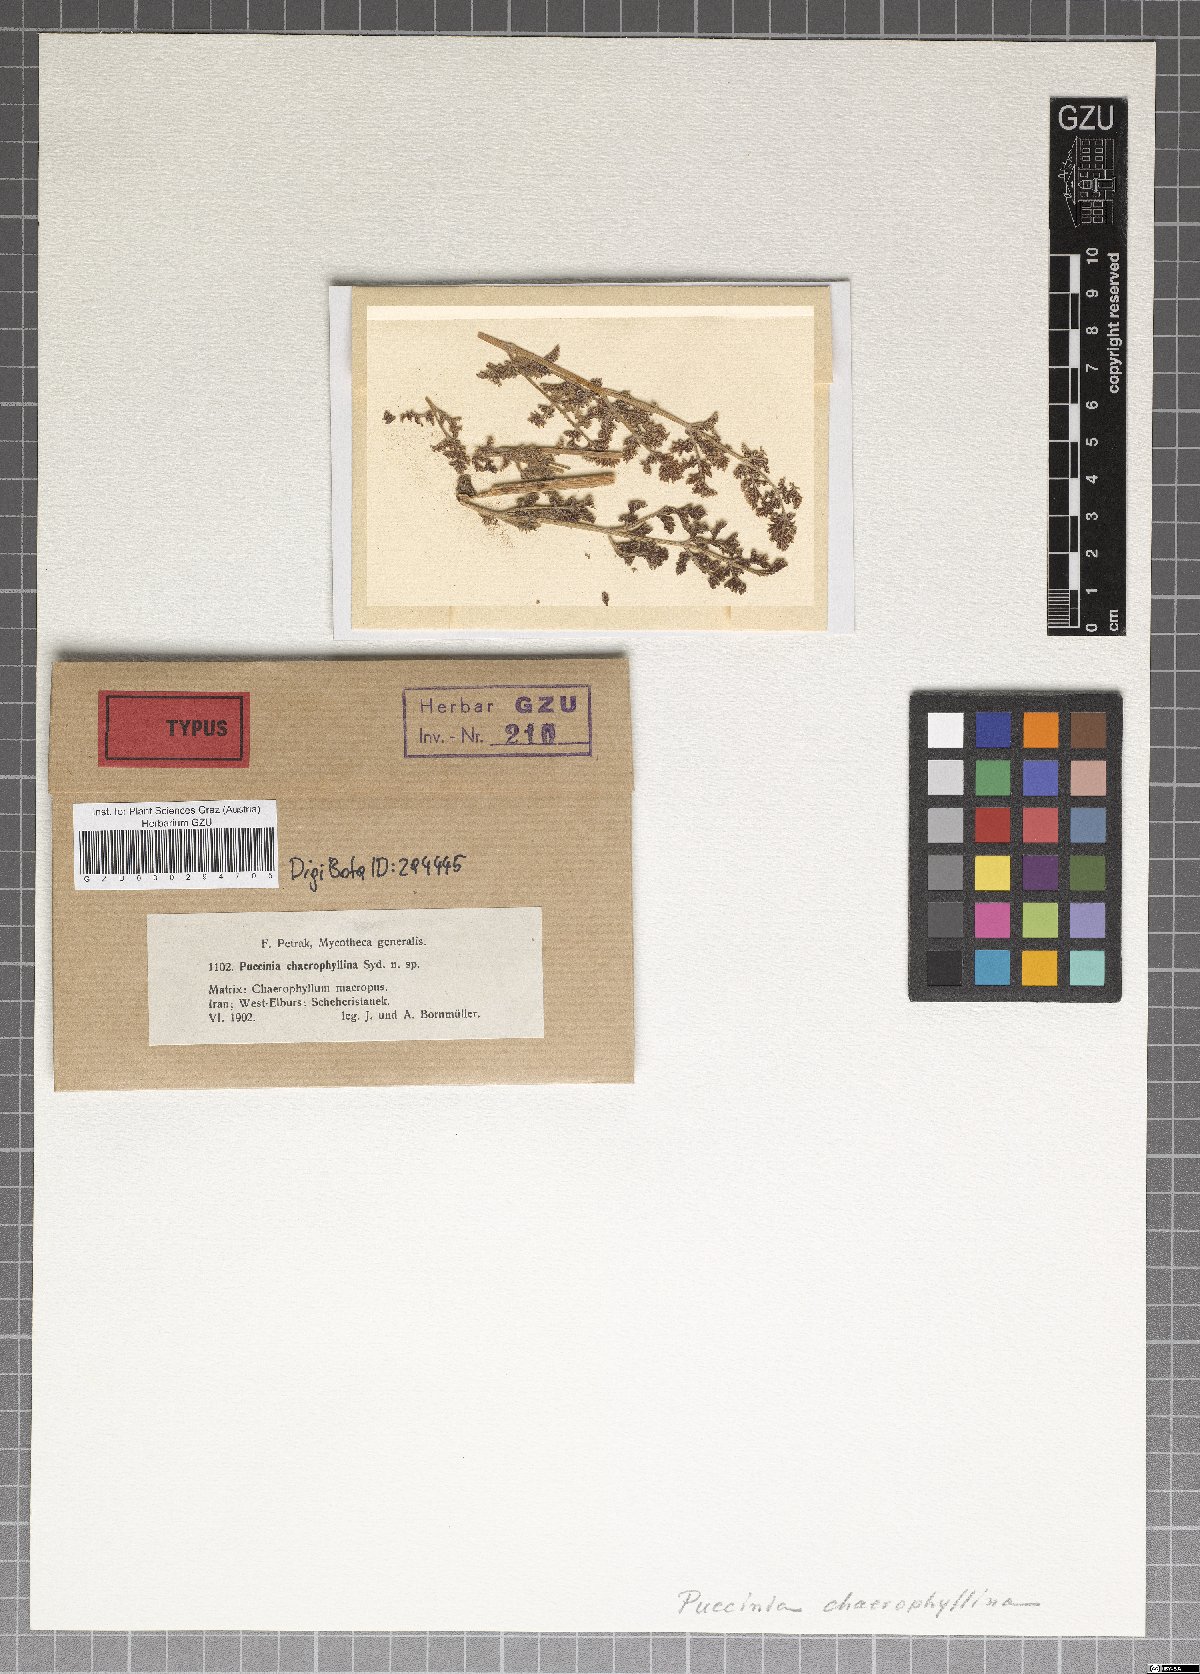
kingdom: Fungi
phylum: Basidiomycota
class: Pucciniomycetes
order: Pucciniales
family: Pucciniaceae
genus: Puccinia
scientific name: Puccinia chaerophyllina
